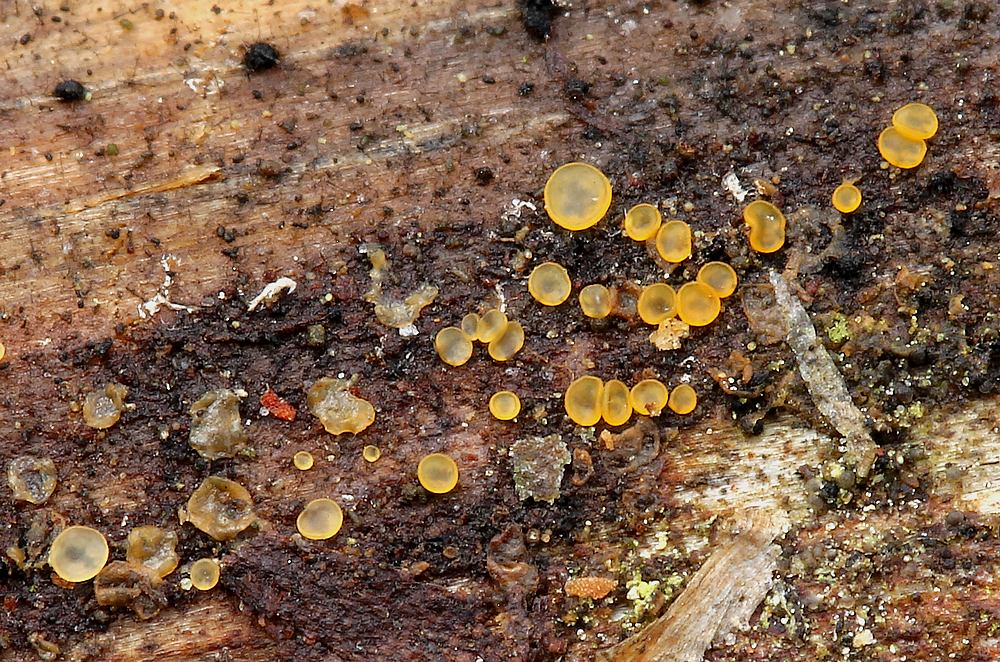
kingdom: Fungi
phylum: Ascomycota
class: Orbiliomycetes
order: Orbiliales
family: Orbiliaceae
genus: Orbilia
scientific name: Orbilia xanthostigma
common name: krumsporet voksskive
